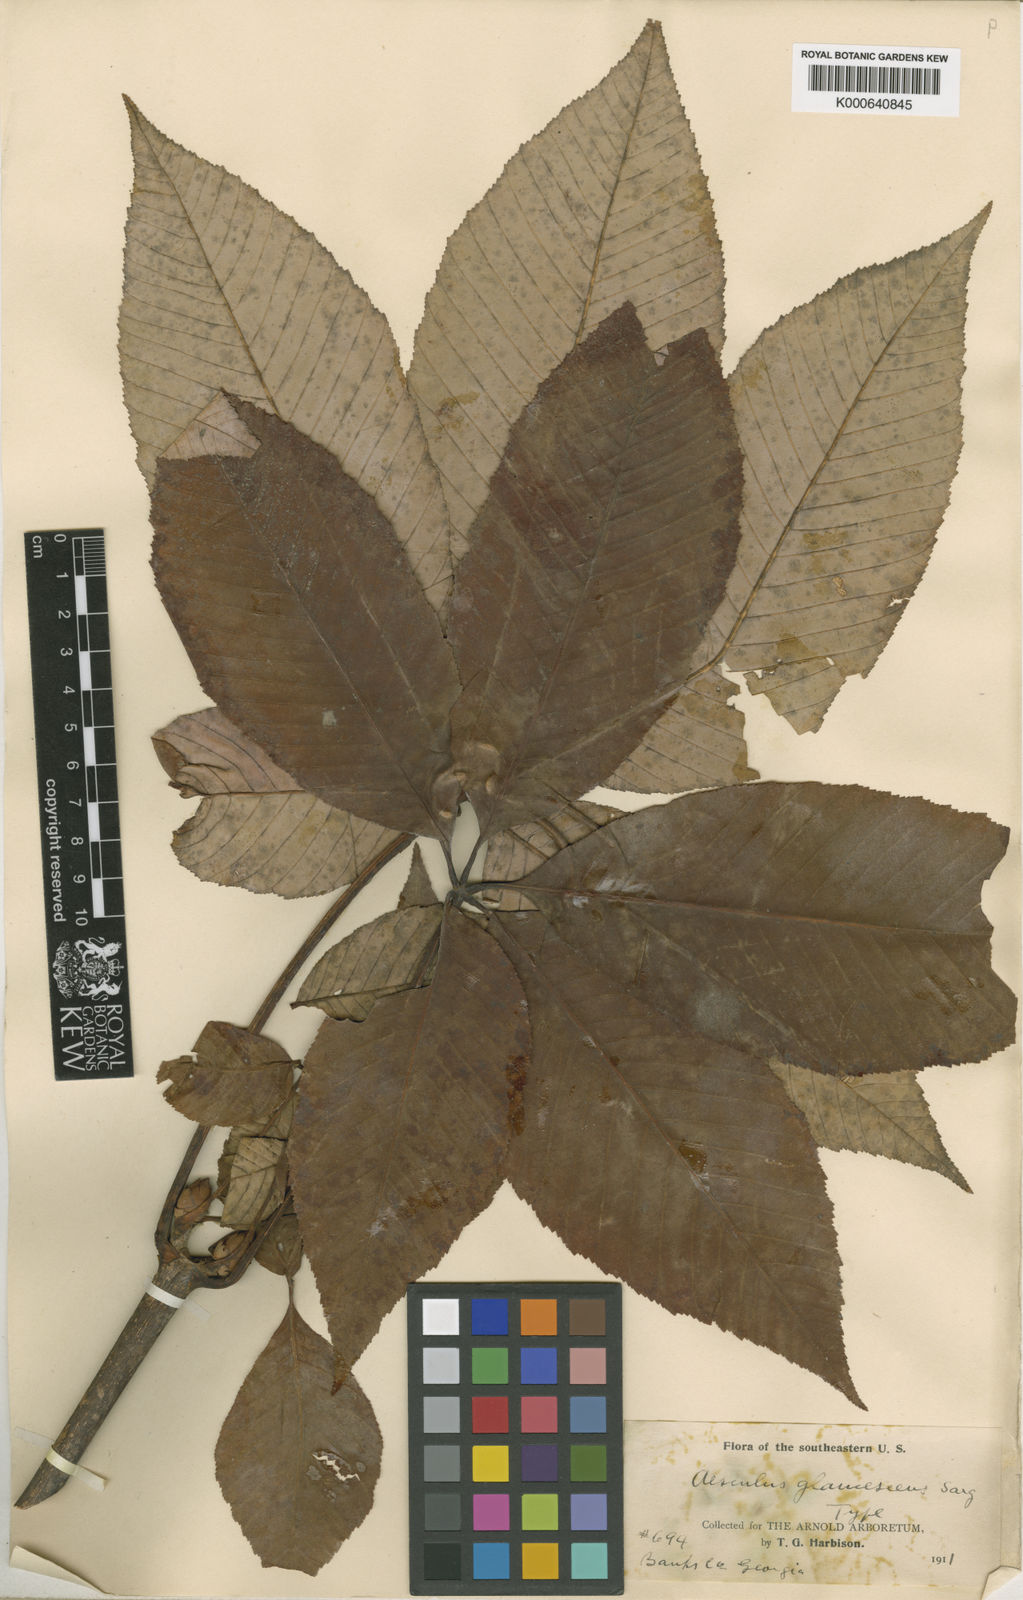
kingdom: Plantae
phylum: Tracheophyta
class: Magnoliopsida
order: Sapindales
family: Sapindaceae
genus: Aesculus
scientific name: Aesculus sylvatica
